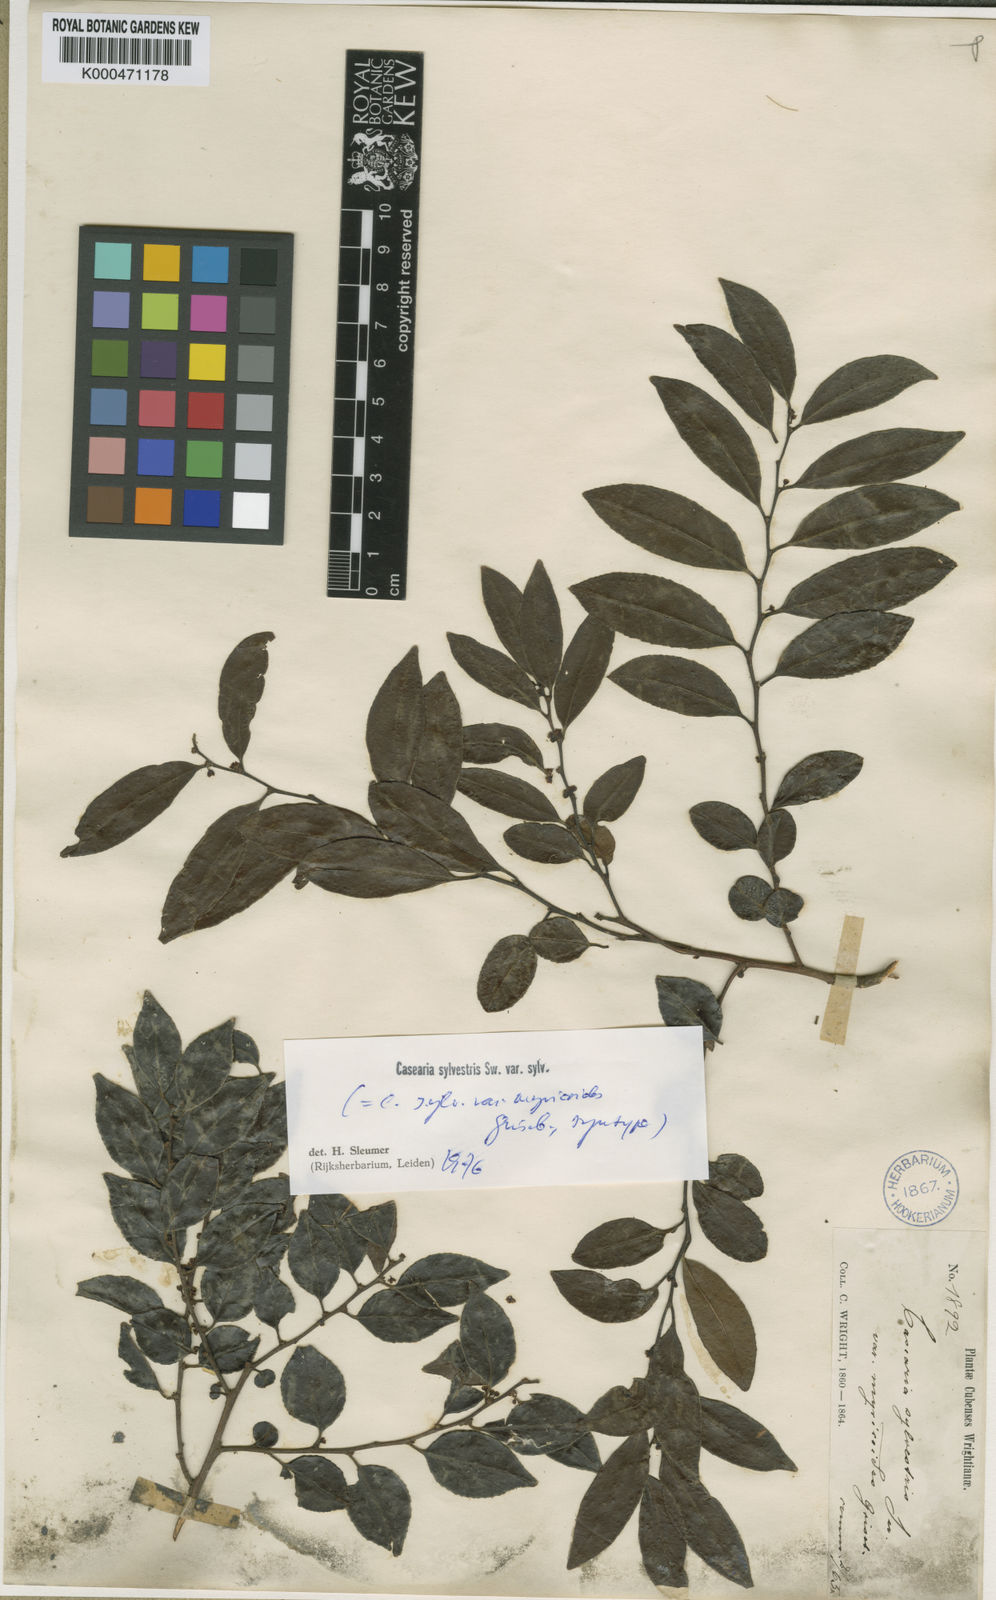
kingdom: Plantae
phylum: Tracheophyta
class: Magnoliopsida
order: Malpighiales
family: Salicaceae
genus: Casearia
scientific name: Casearia sylvestris
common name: Wild sage
